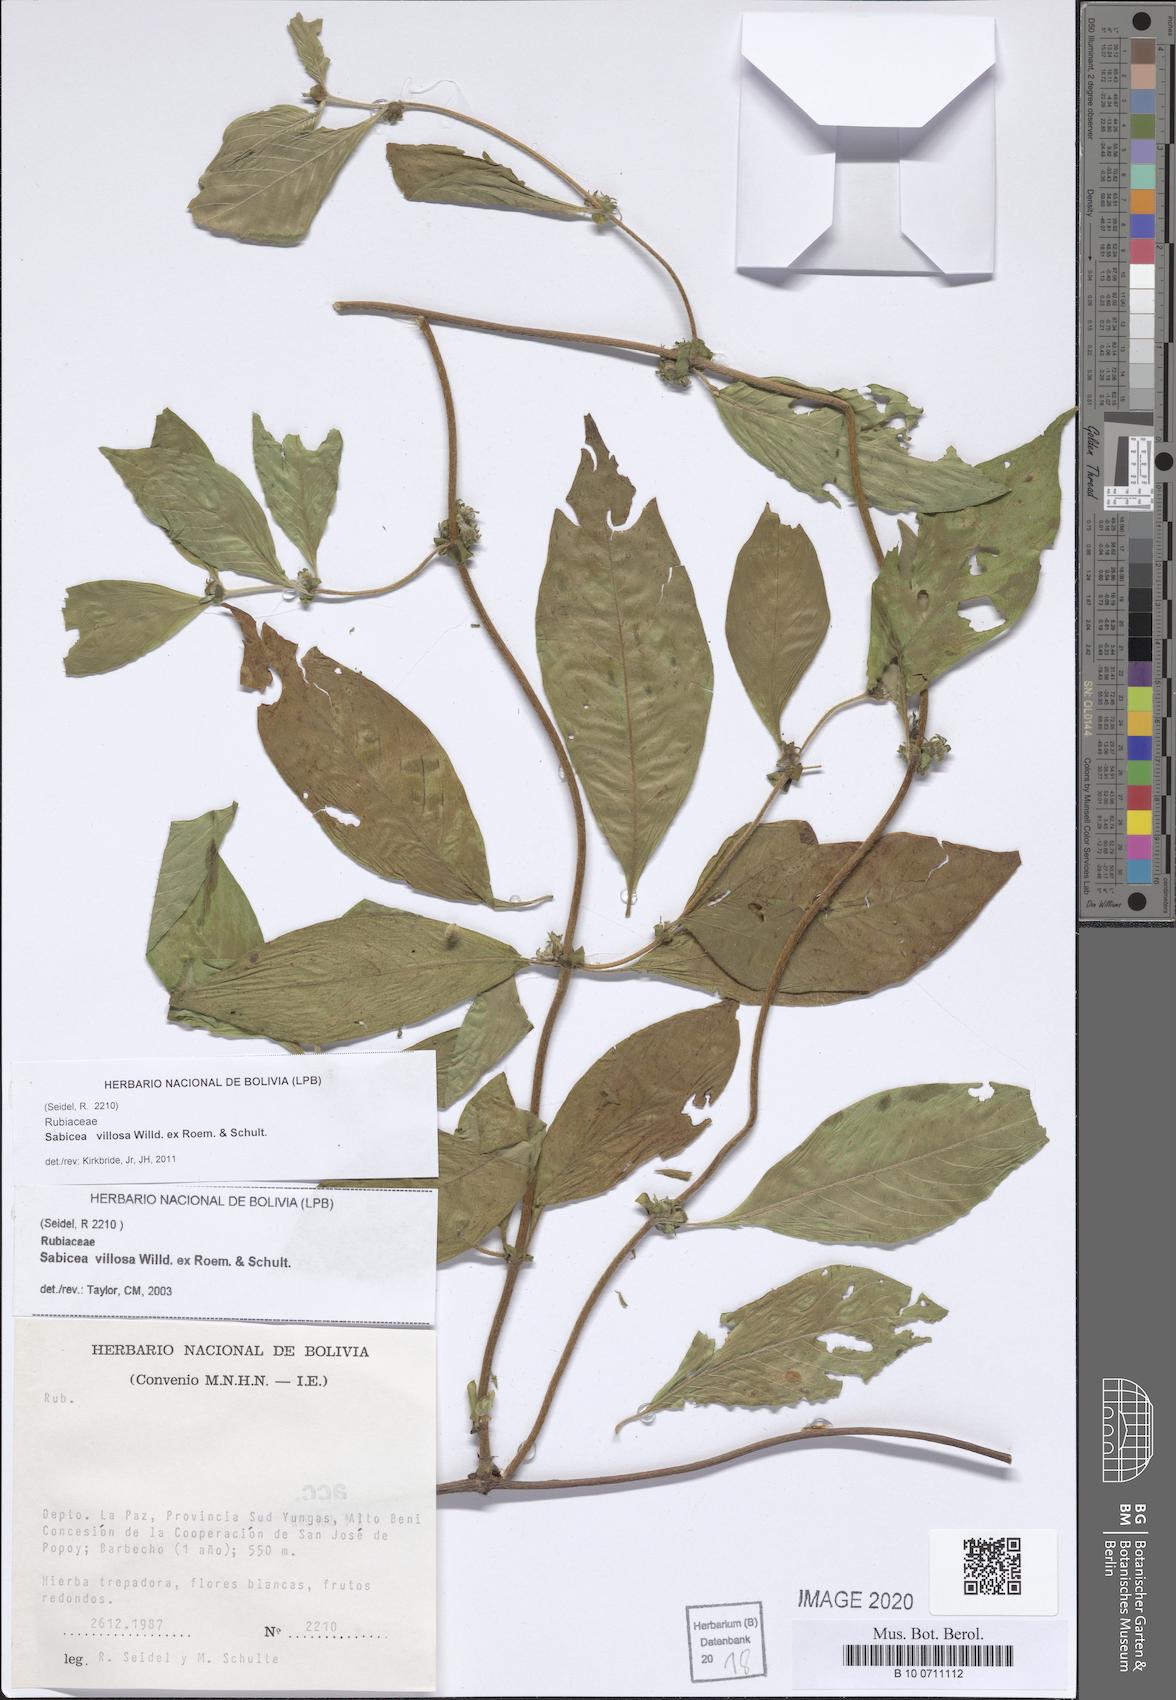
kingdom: Plantae
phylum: Tracheophyta
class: Magnoliopsida
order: Gentianales
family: Rubiaceae
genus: Psychotria
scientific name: Psychotria herzogii
